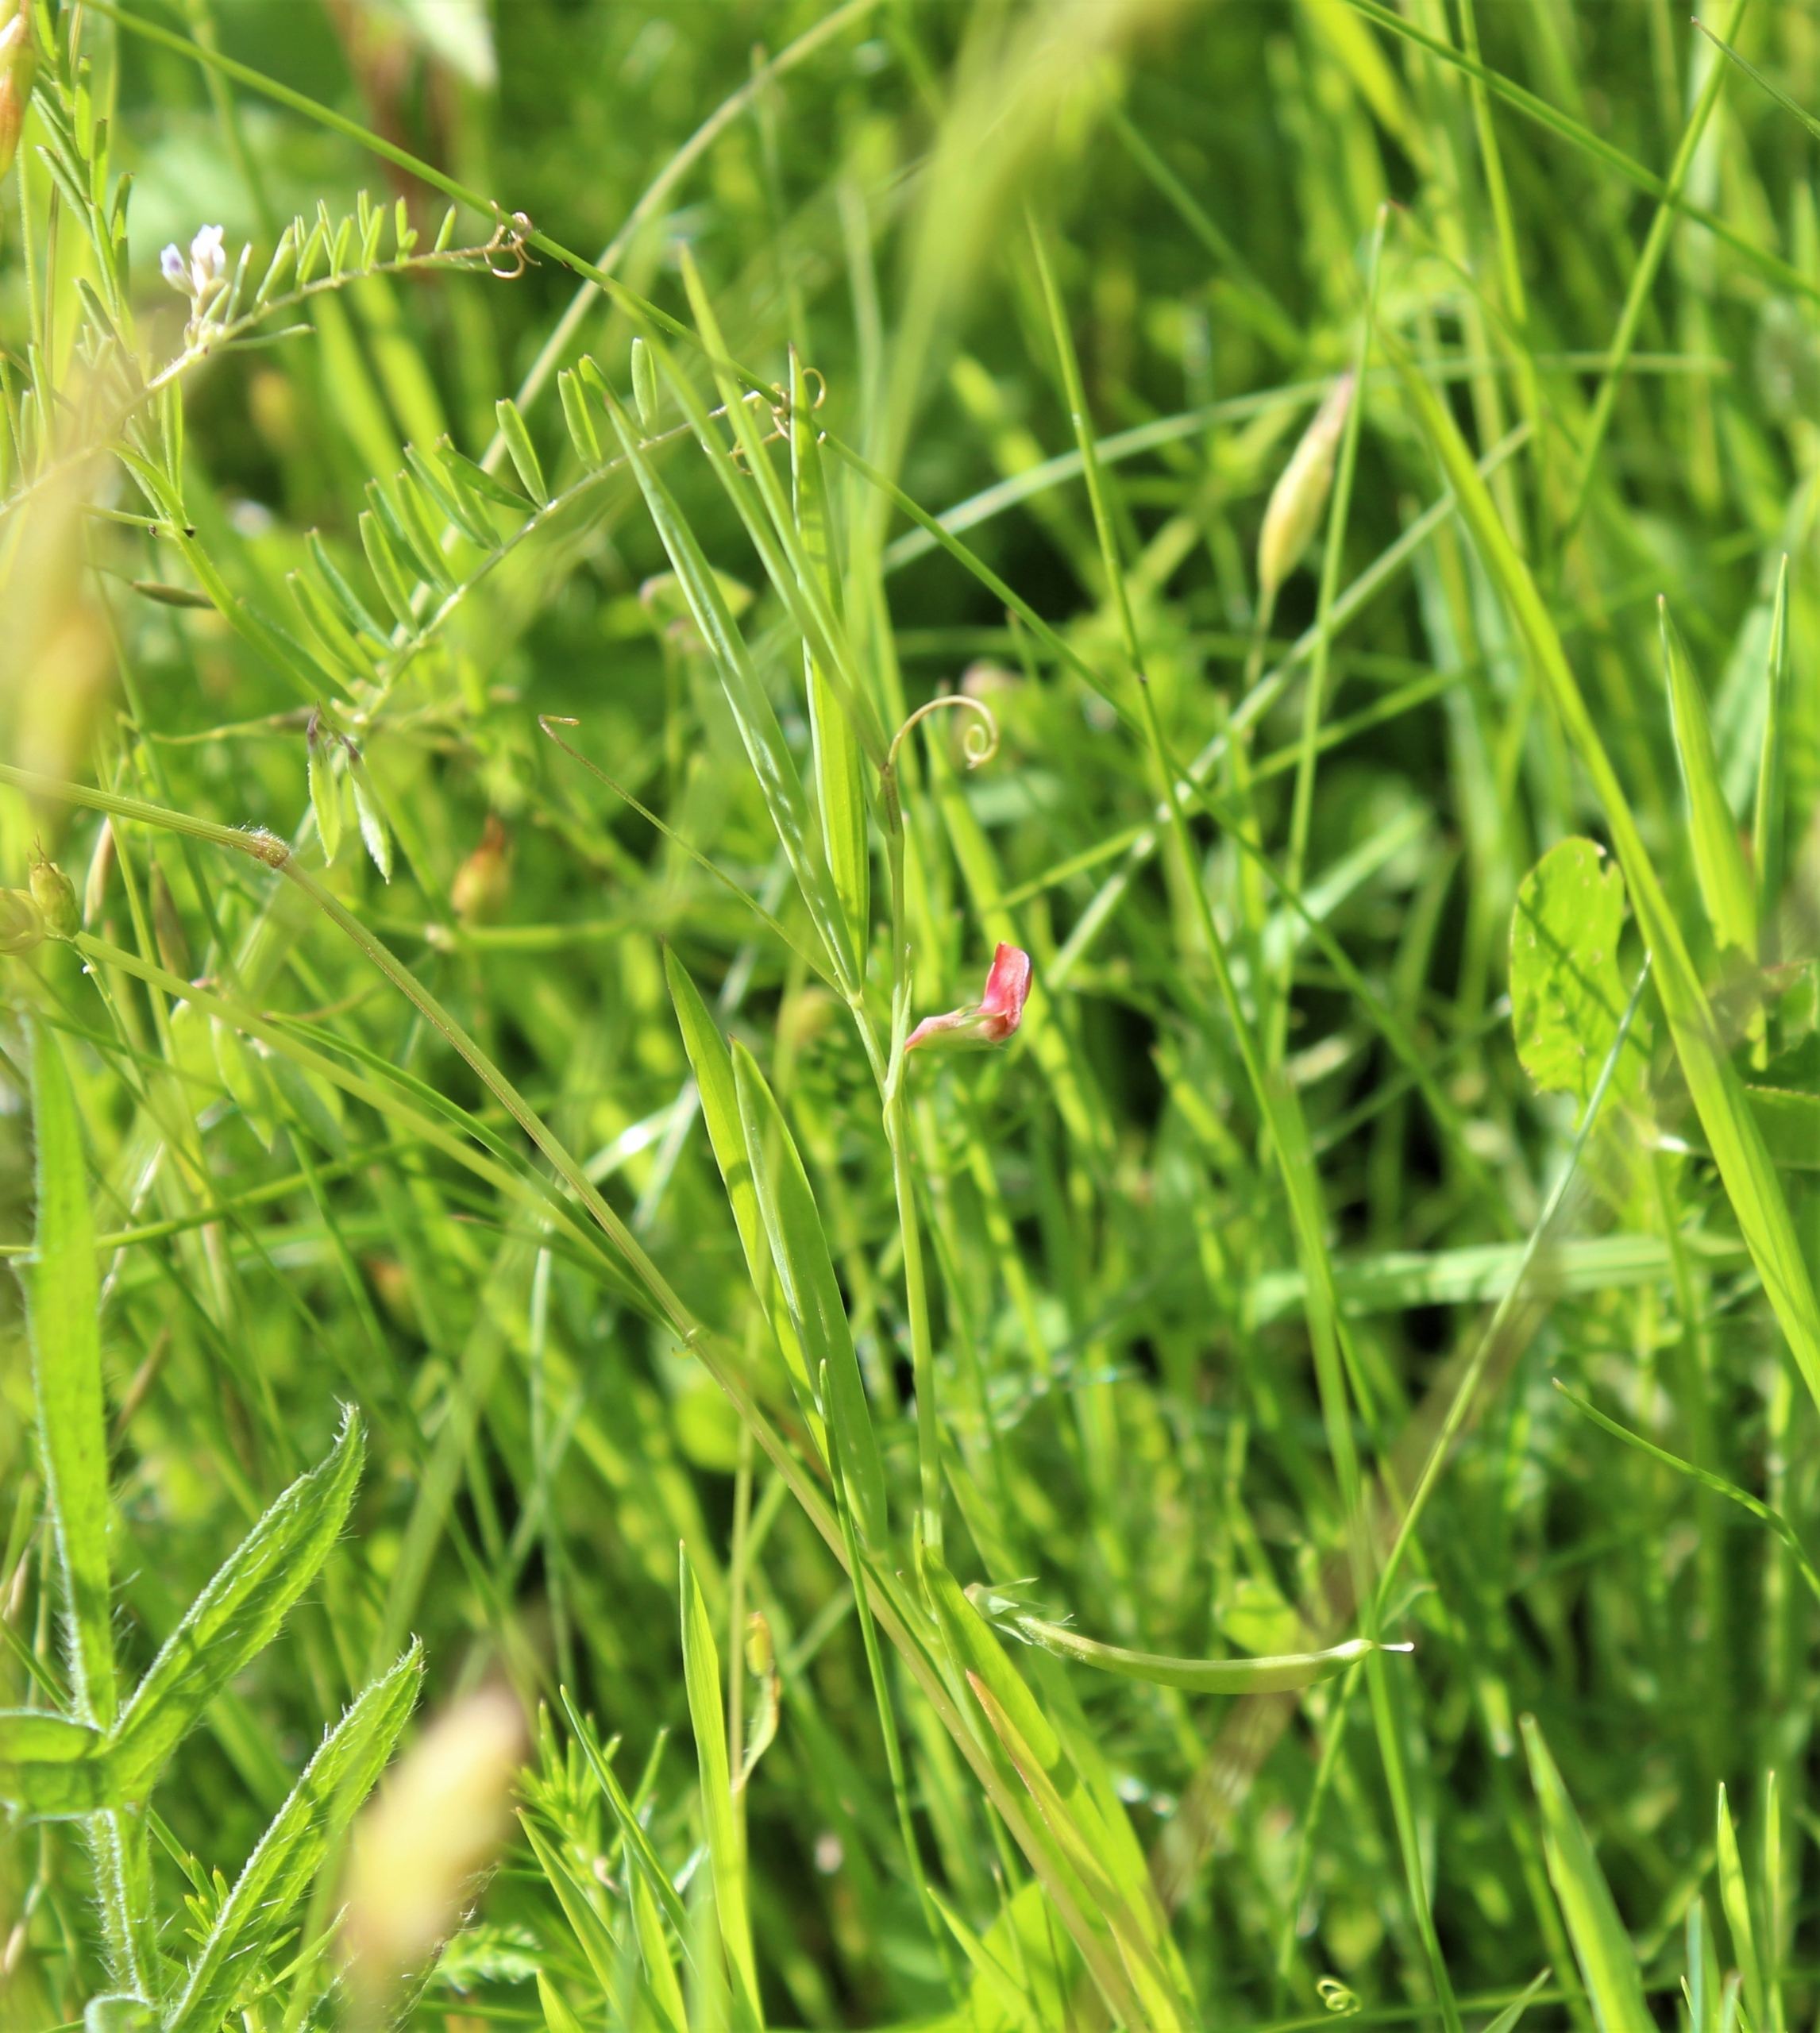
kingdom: Plantae
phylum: Tracheophyta
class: Magnoliopsida
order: Fabales
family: Fabaceae
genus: Lathyrus
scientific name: Lathyrus sphaericus
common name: Enblomstret fladbælg
